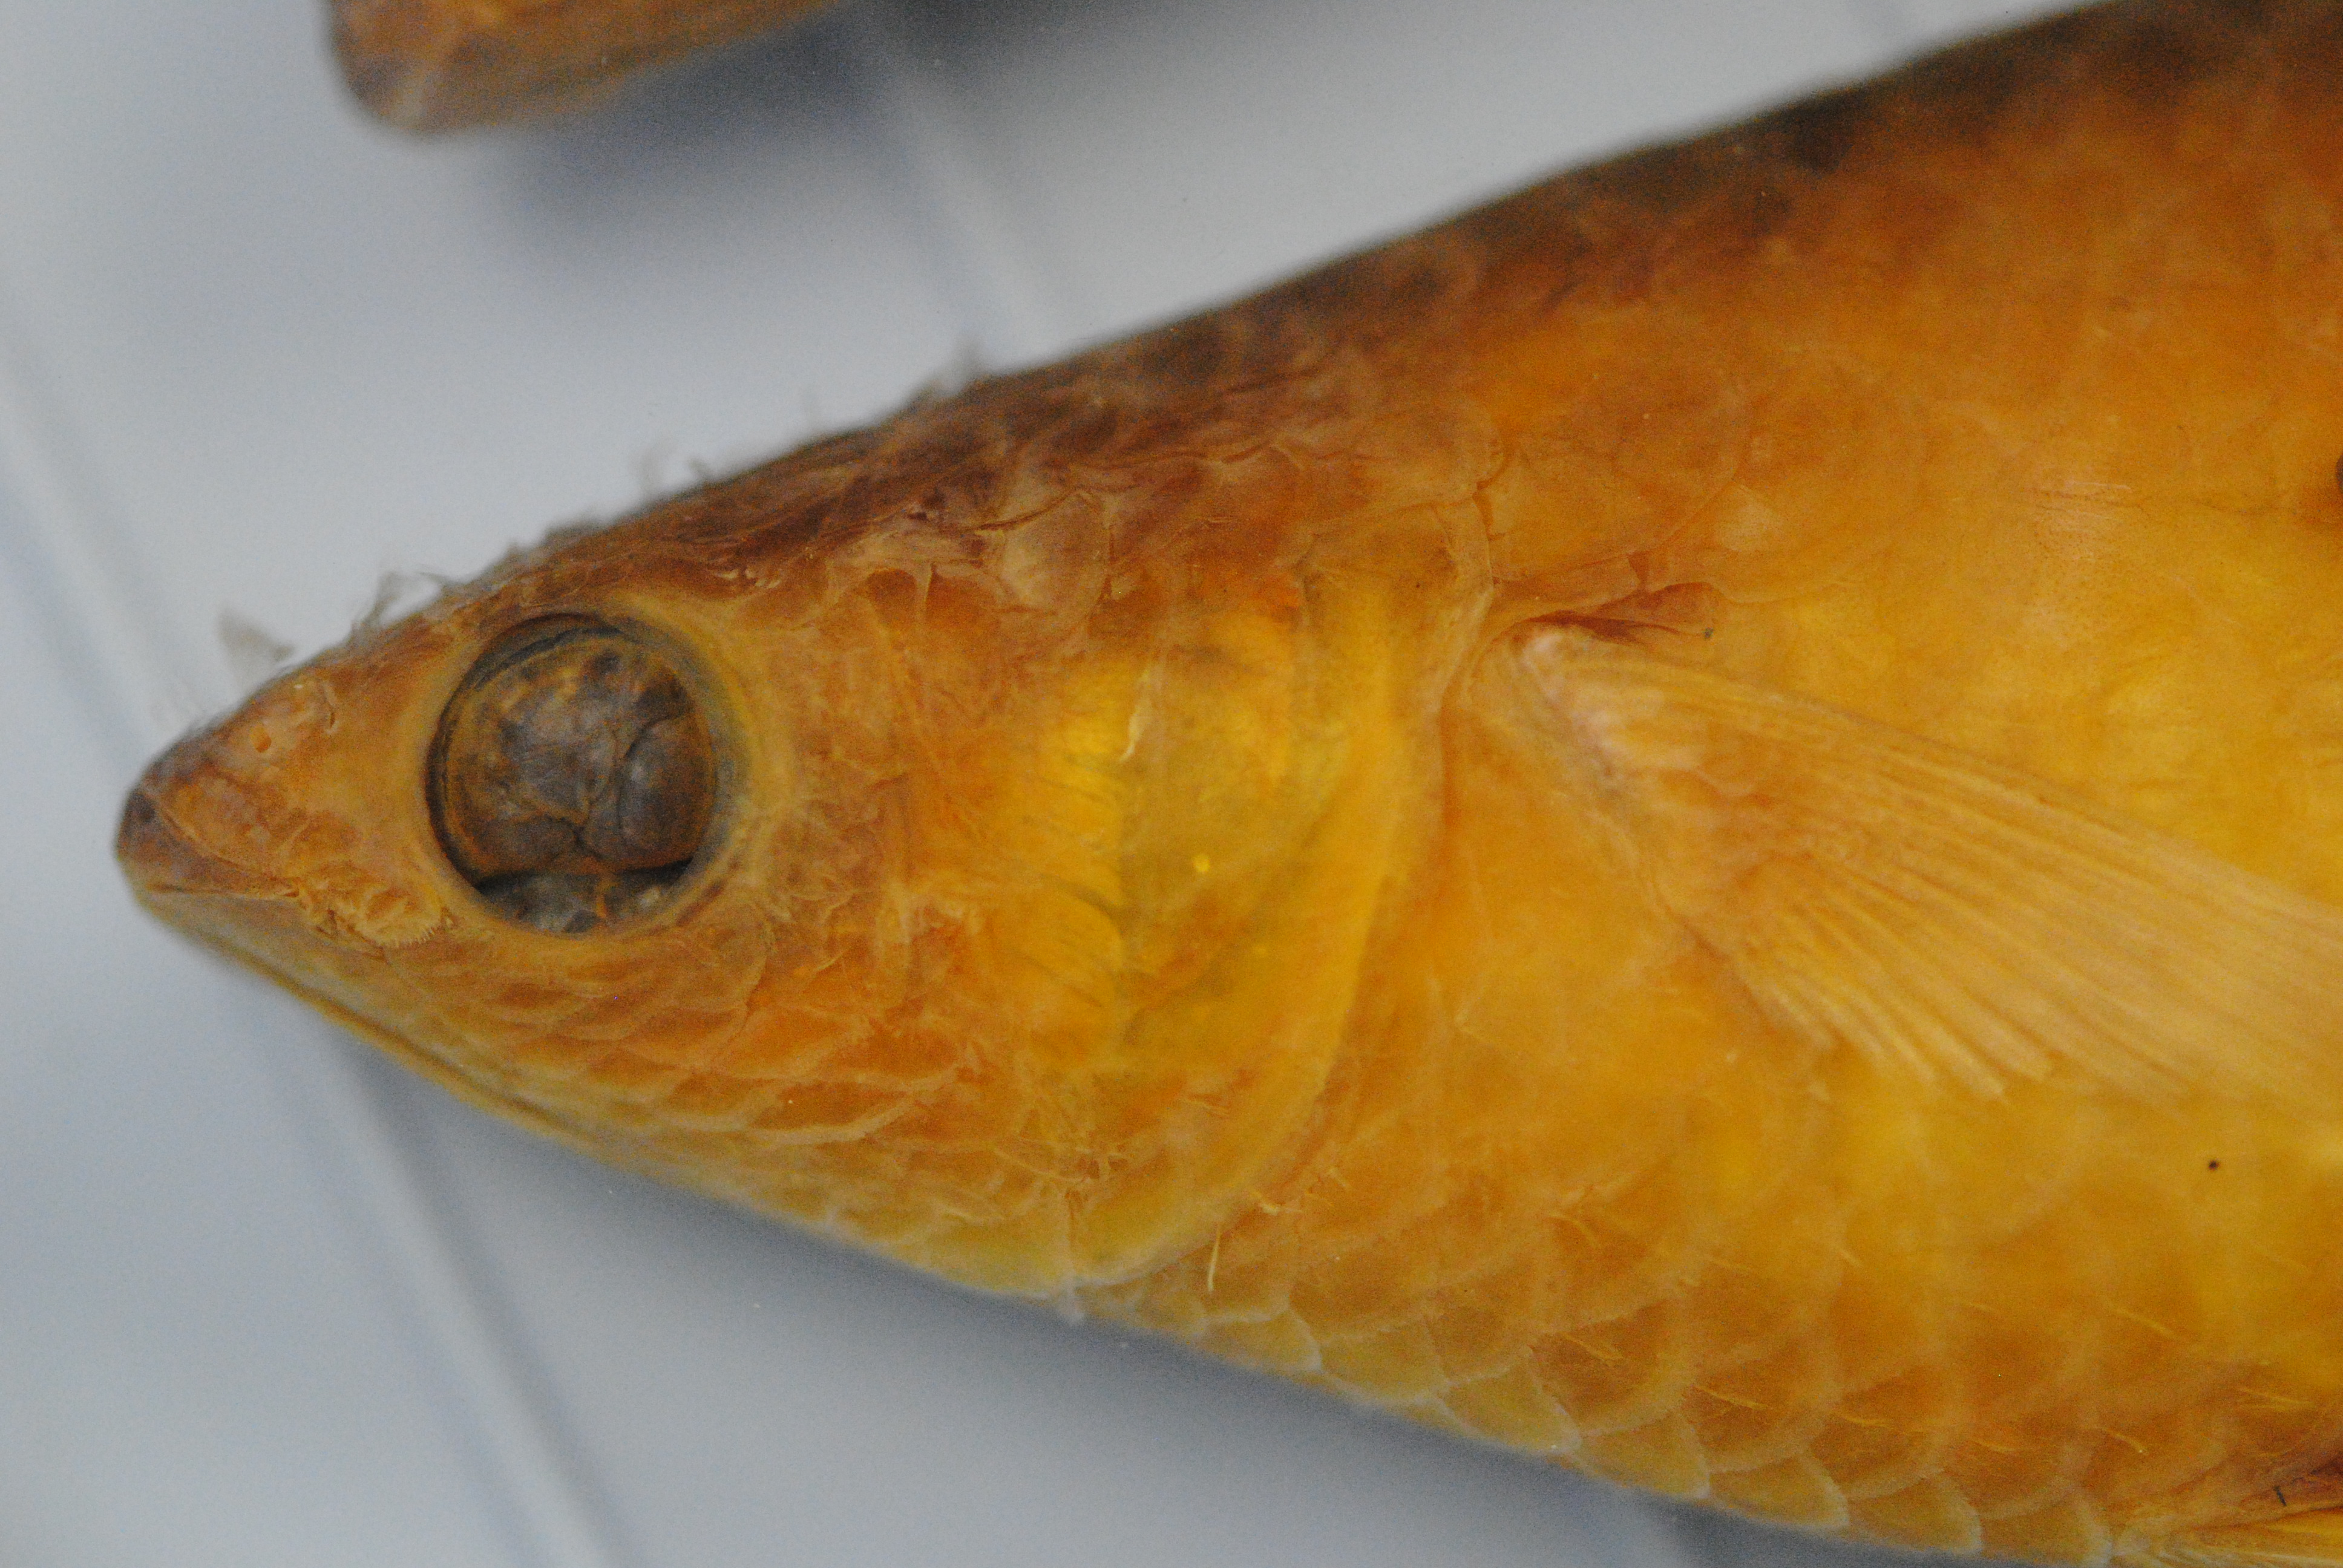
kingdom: Animalia
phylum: Chordata
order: Mugiliformes
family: Mugilidae
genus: Liza
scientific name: Liza luciae
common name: St. lucia mullet
